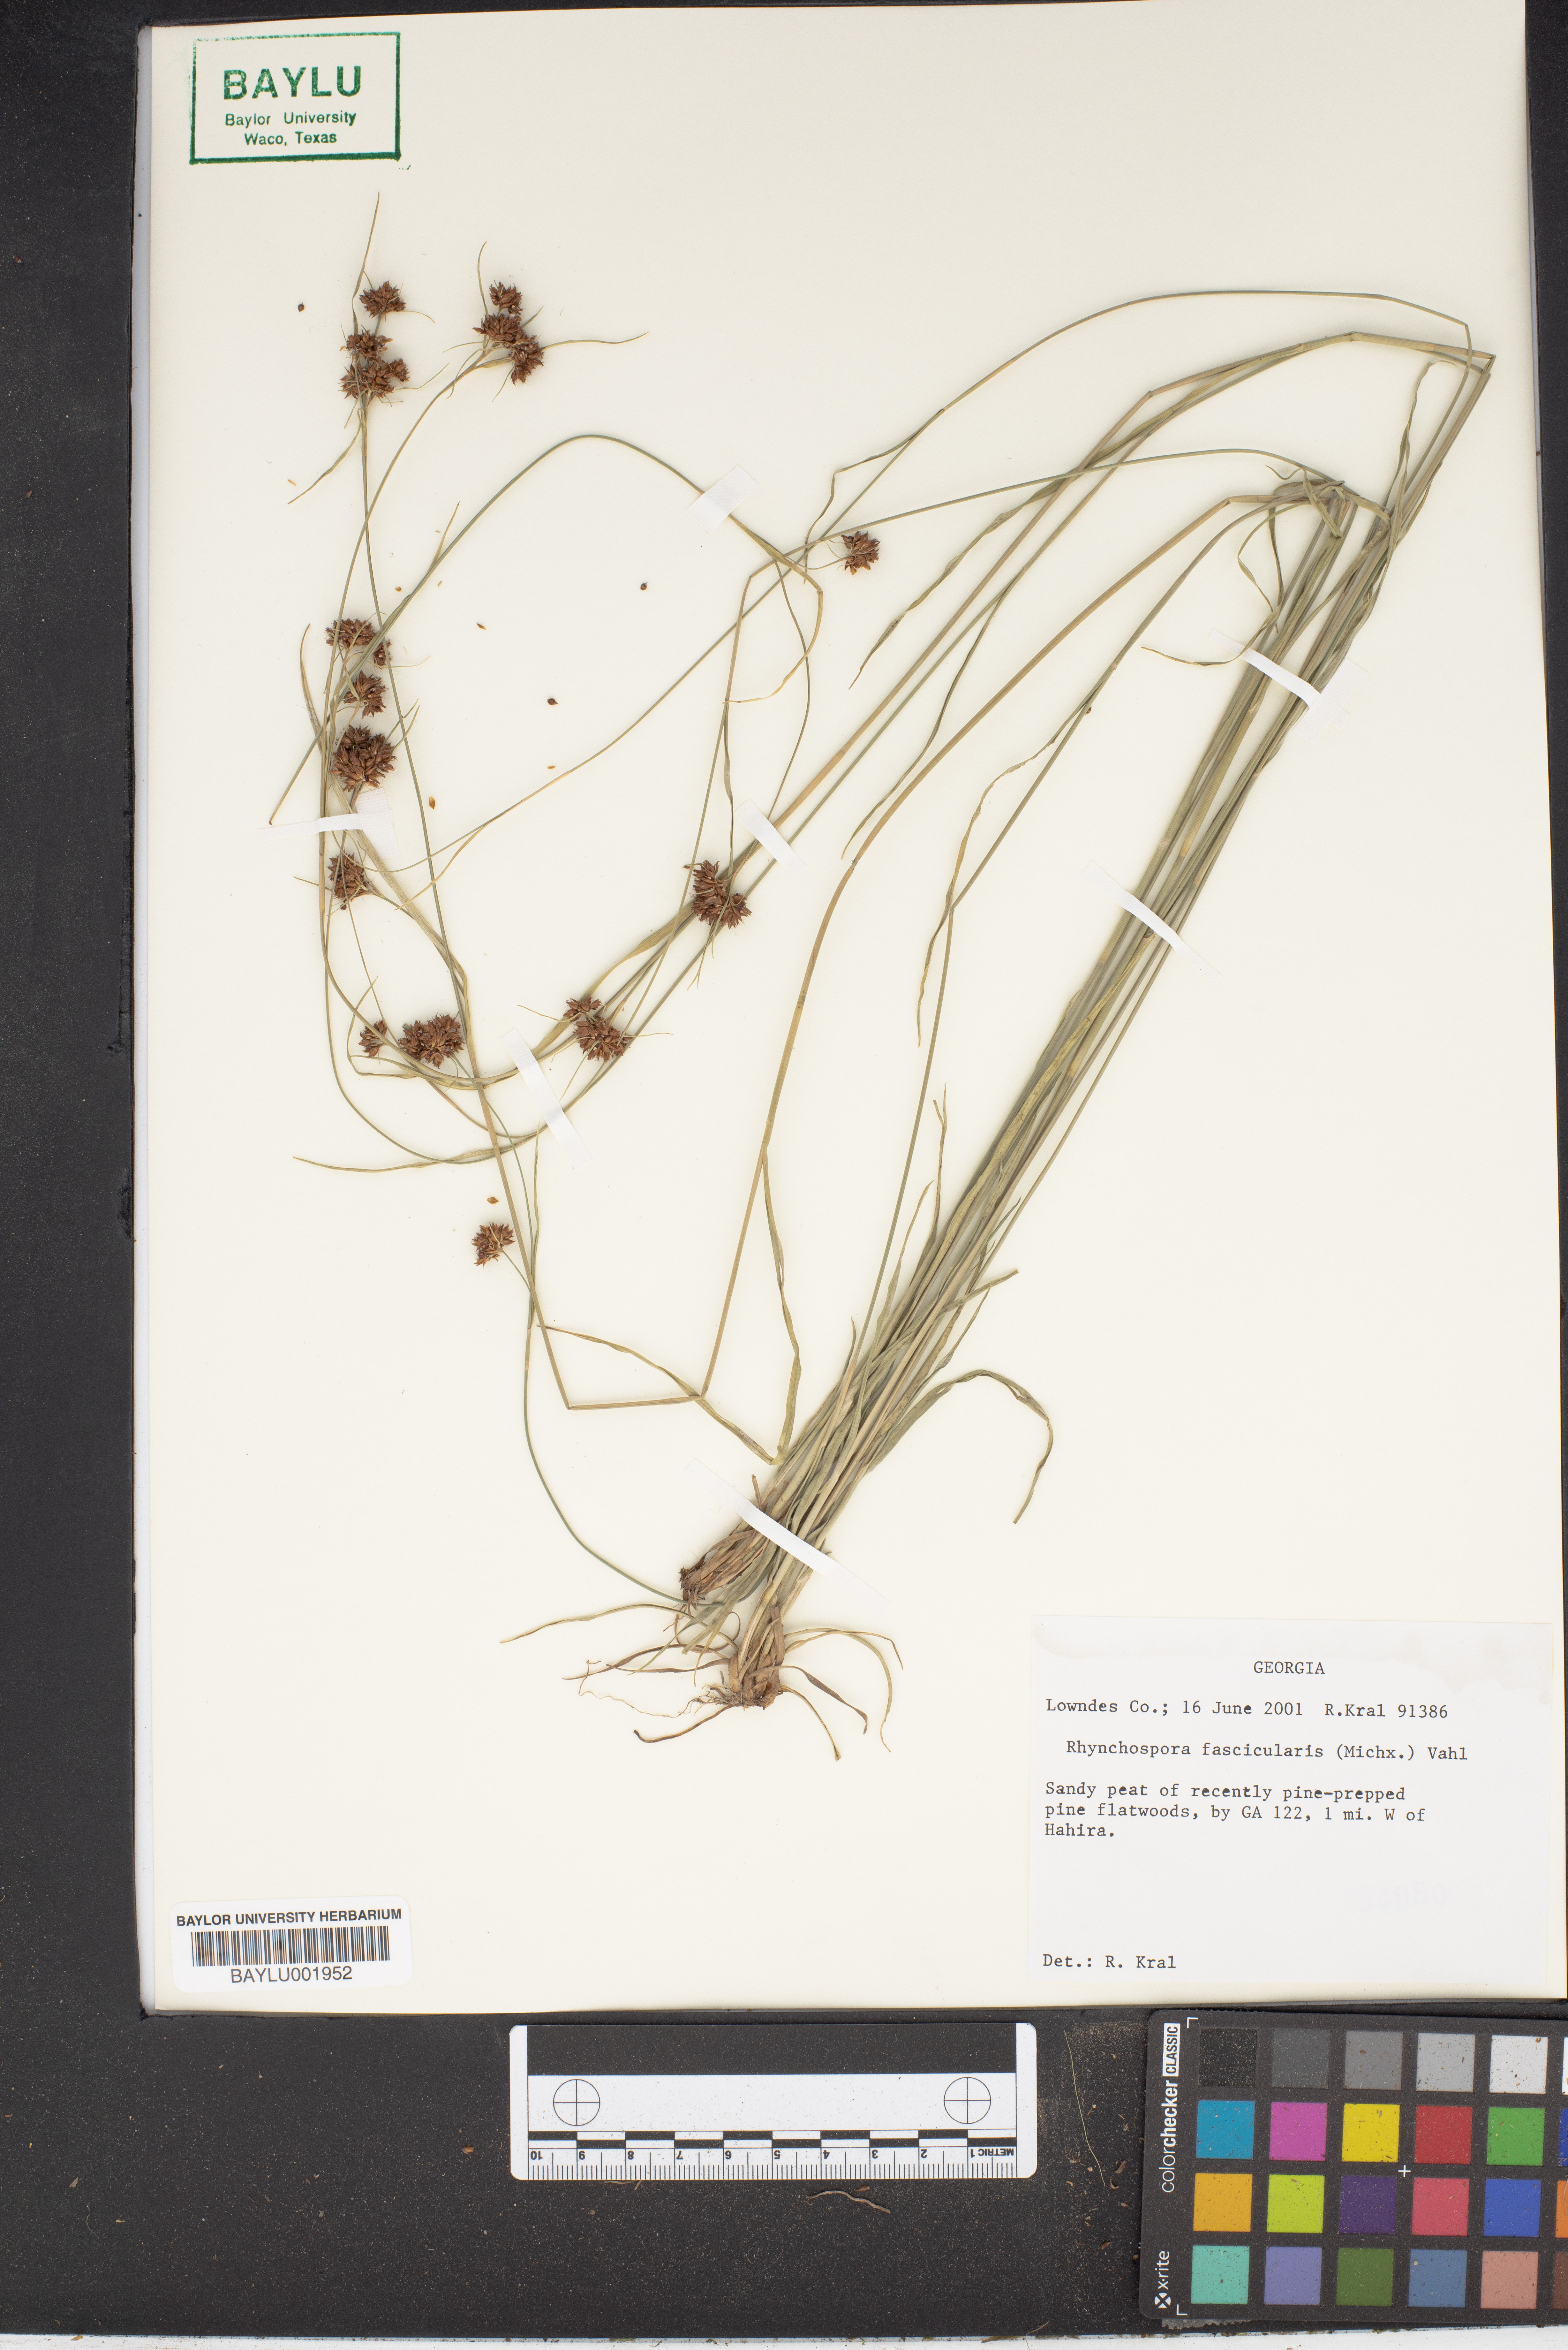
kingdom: Plantae
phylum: Tracheophyta
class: Liliopsida
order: Poales
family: Cyperaceae
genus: Rhynchospora
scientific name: Rhynchospora fascicularis
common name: Fascicled beak sedge
